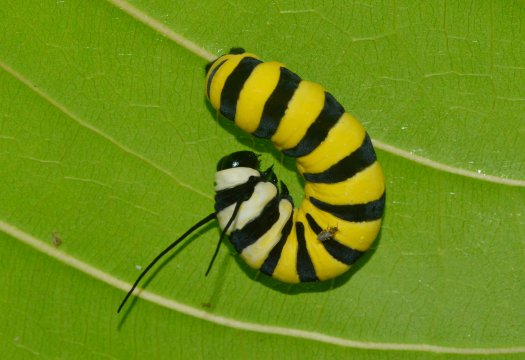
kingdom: Animalia
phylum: Arthropoda
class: Insecta
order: Lepidoptera
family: Nymphalidae
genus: Lycorea
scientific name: Lycorea cleobaea
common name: Tiger Mimic-Queen
